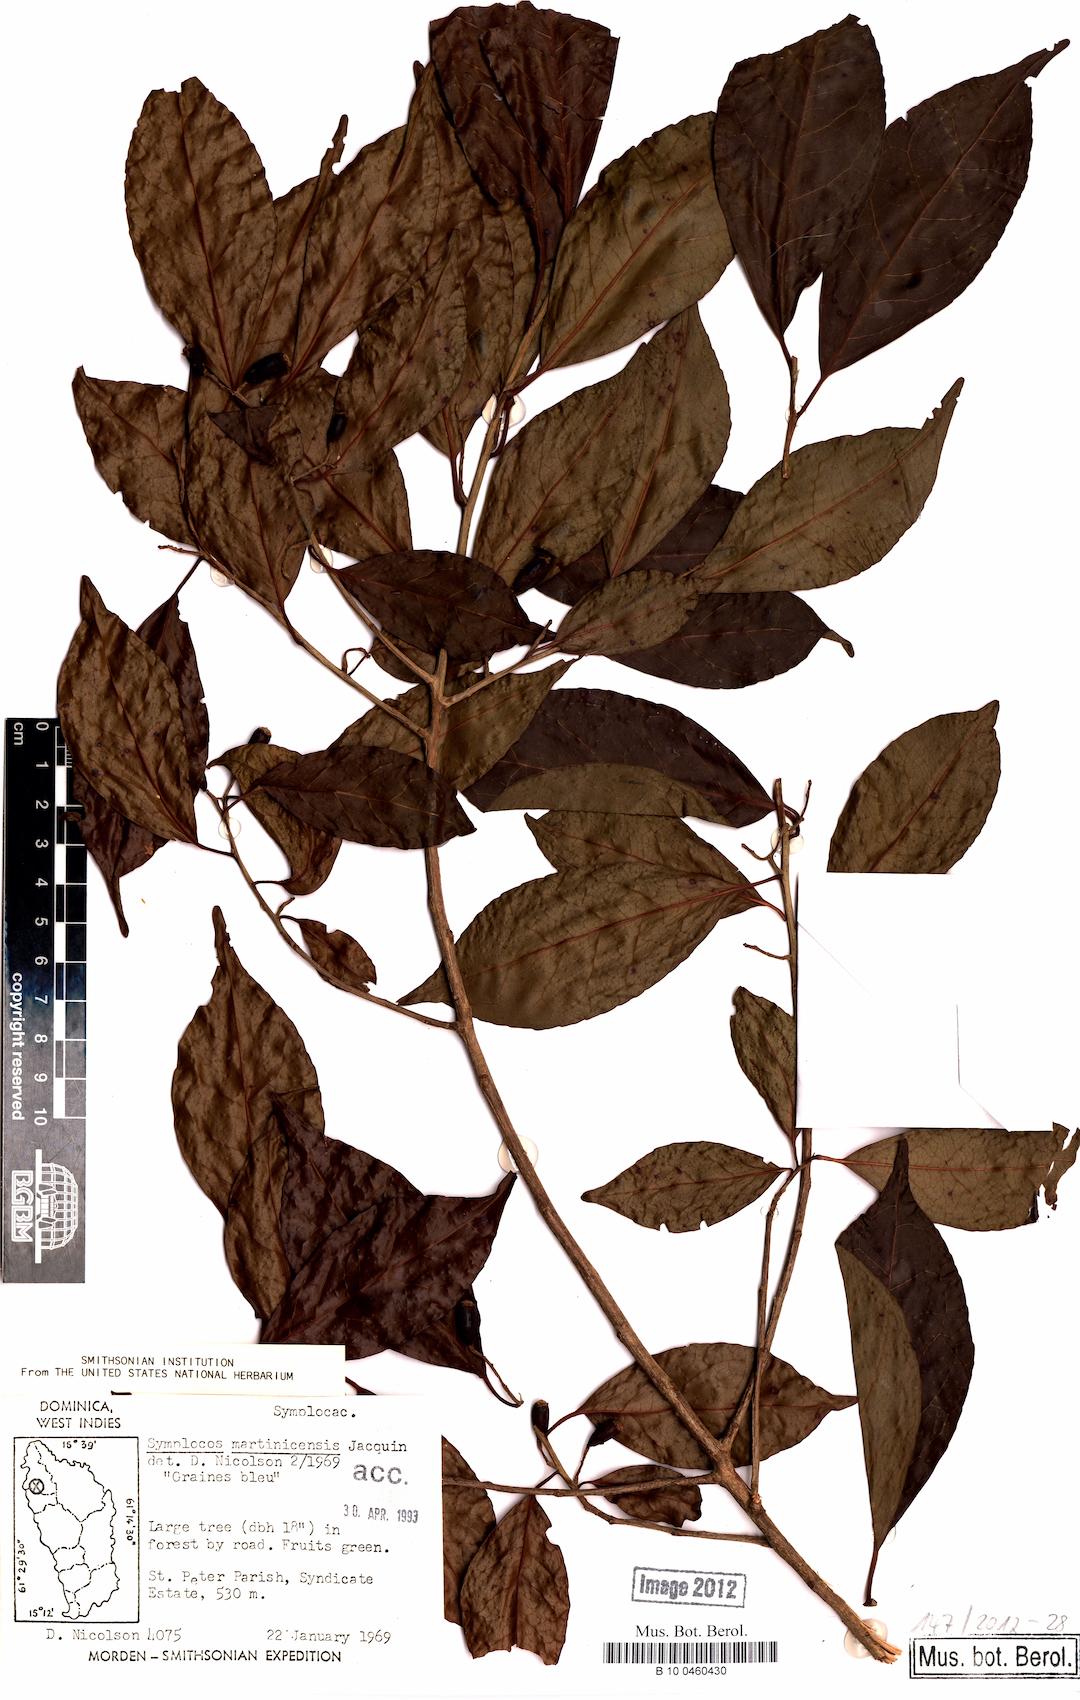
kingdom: Plantae
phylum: Tracheophyta
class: Magnoliopsida
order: Ericales
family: Symplocaceae
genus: Symplocos
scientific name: Symplocos martinicensis
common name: Blueberry
